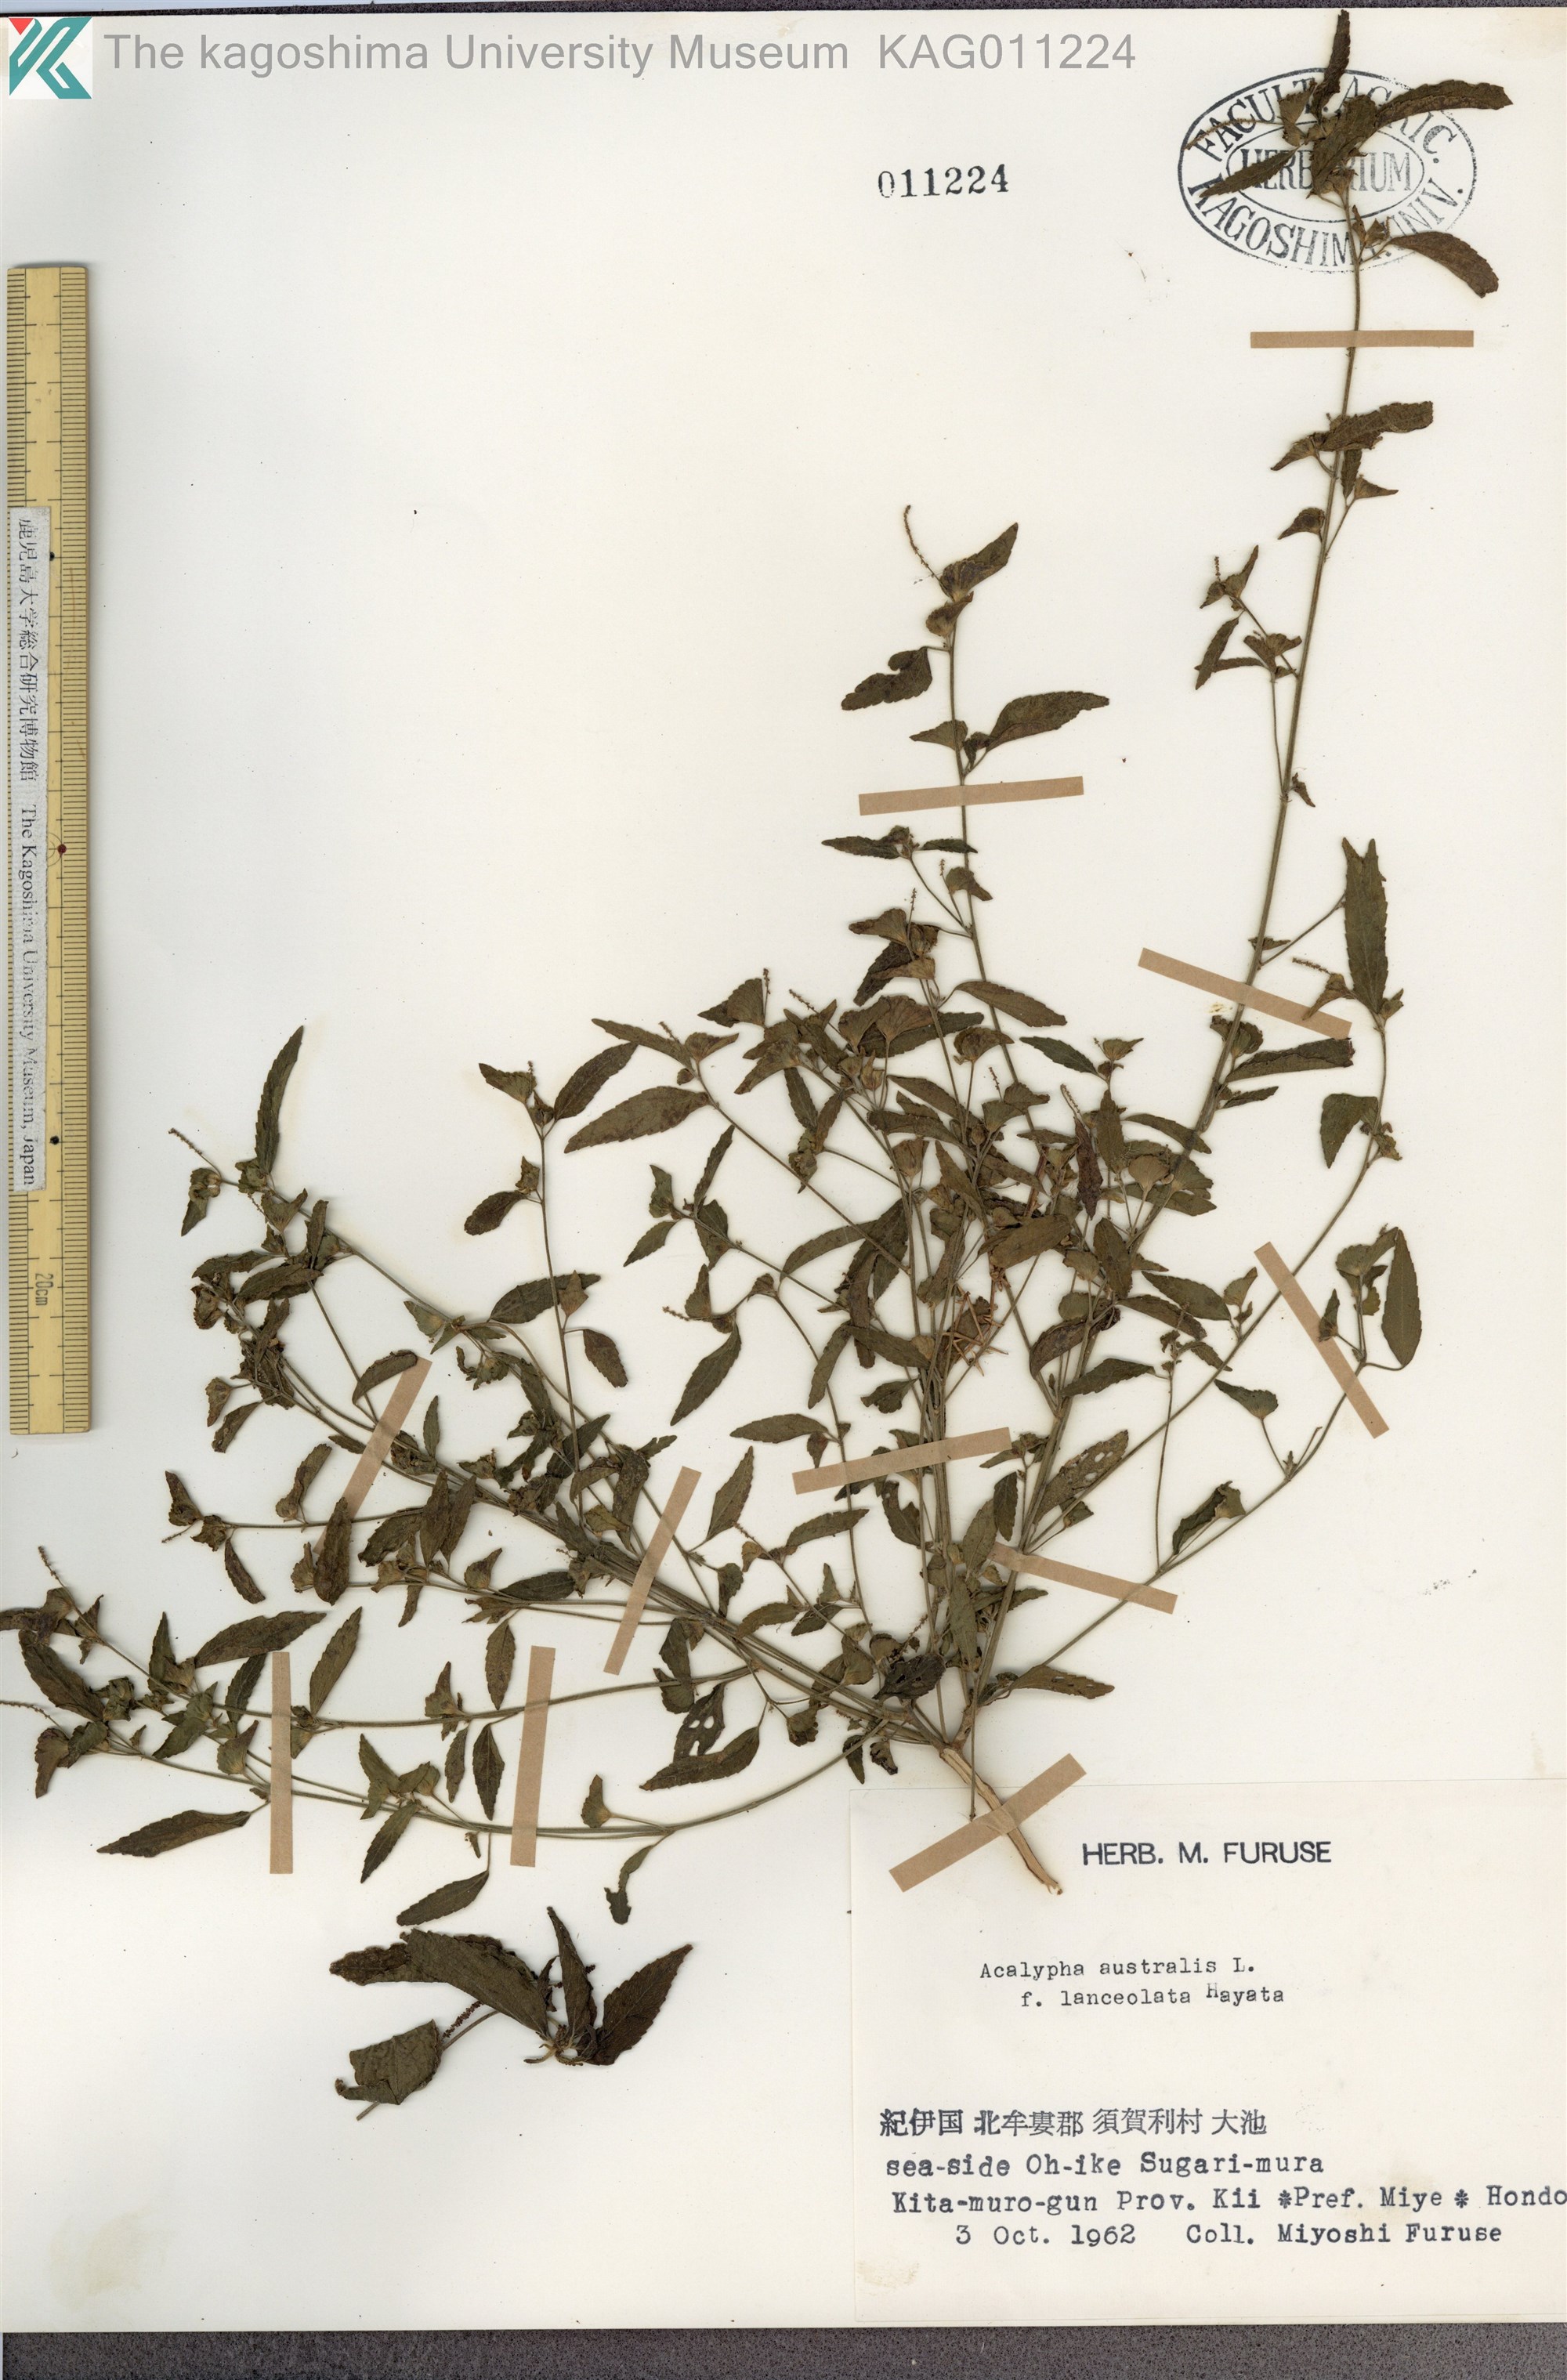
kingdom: Plantae
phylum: Tracheophyta
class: Magnoliopsida
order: Malpighiales
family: Euphorbiaceae
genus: Acalypha
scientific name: Acalypha australis
